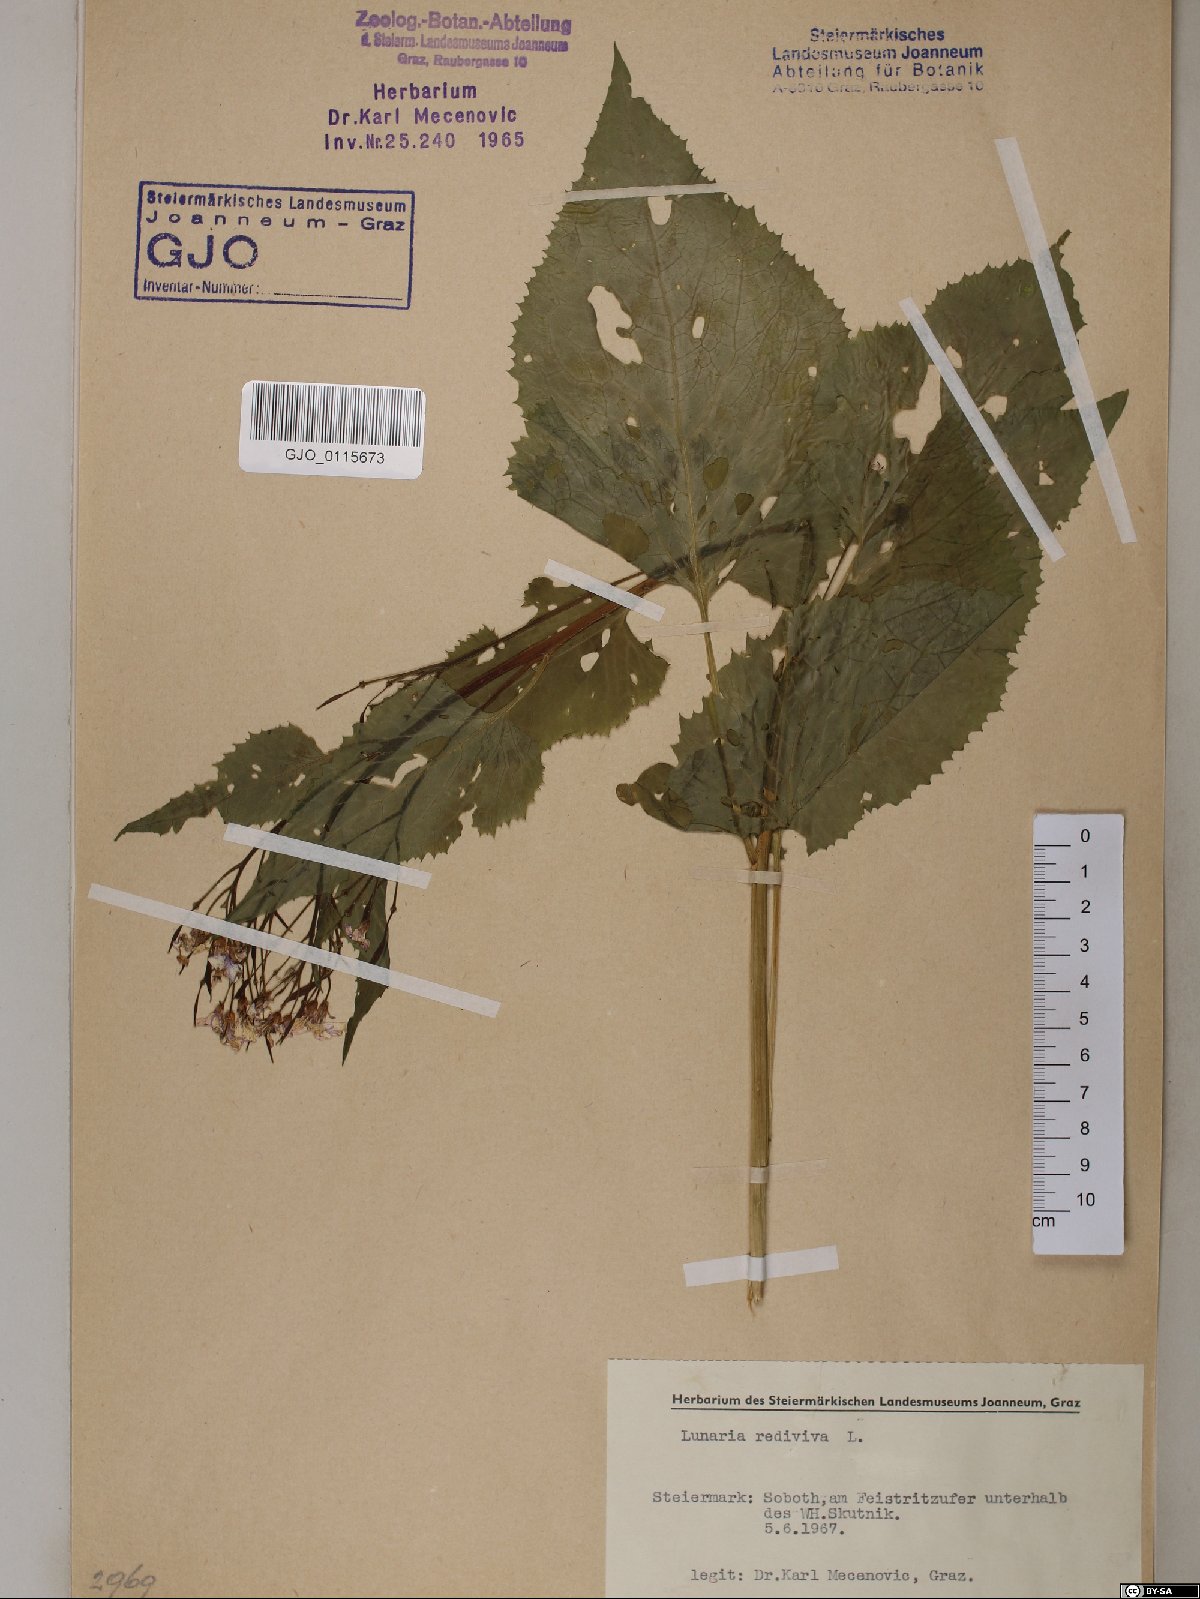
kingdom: Plantae
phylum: Tracheophyta
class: Magnoliopsida
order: Brassicales
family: Brassicaceae
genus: Lunaria
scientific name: Lunaria rediviva
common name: Perennial honesty
